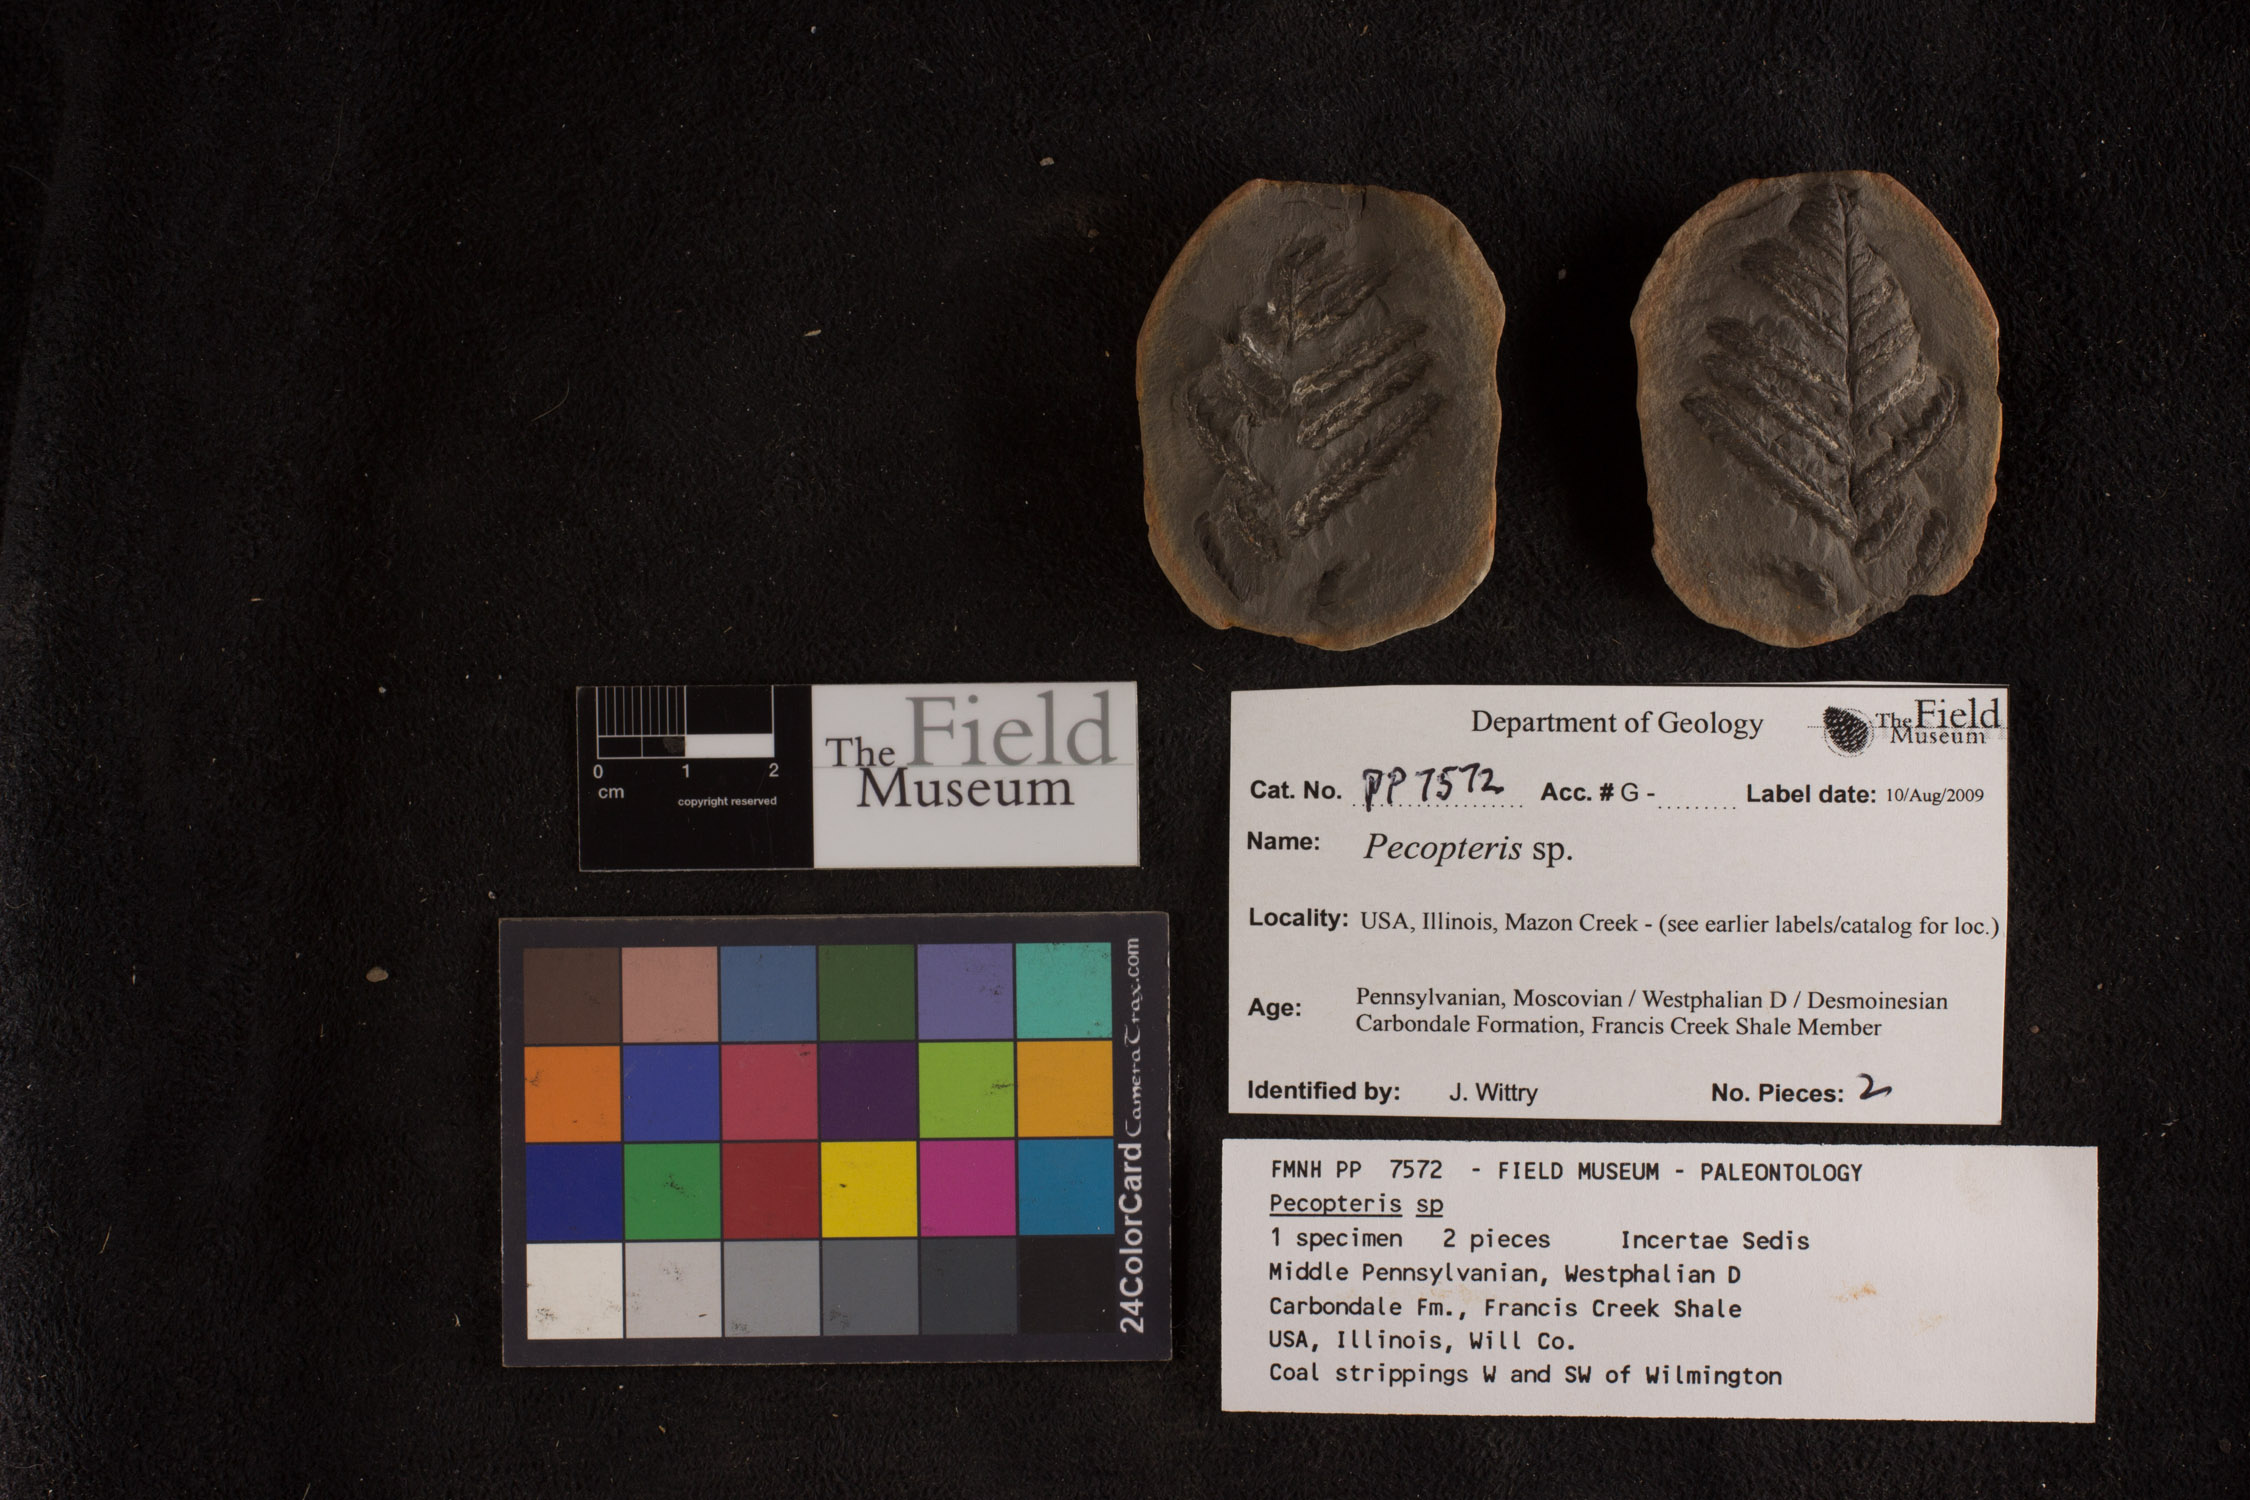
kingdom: Plantae
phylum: Tracheophyta
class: Polypodiopsida
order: Marattiales
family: Asterothecaceae
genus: Pecopteris
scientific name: Pecopteris
